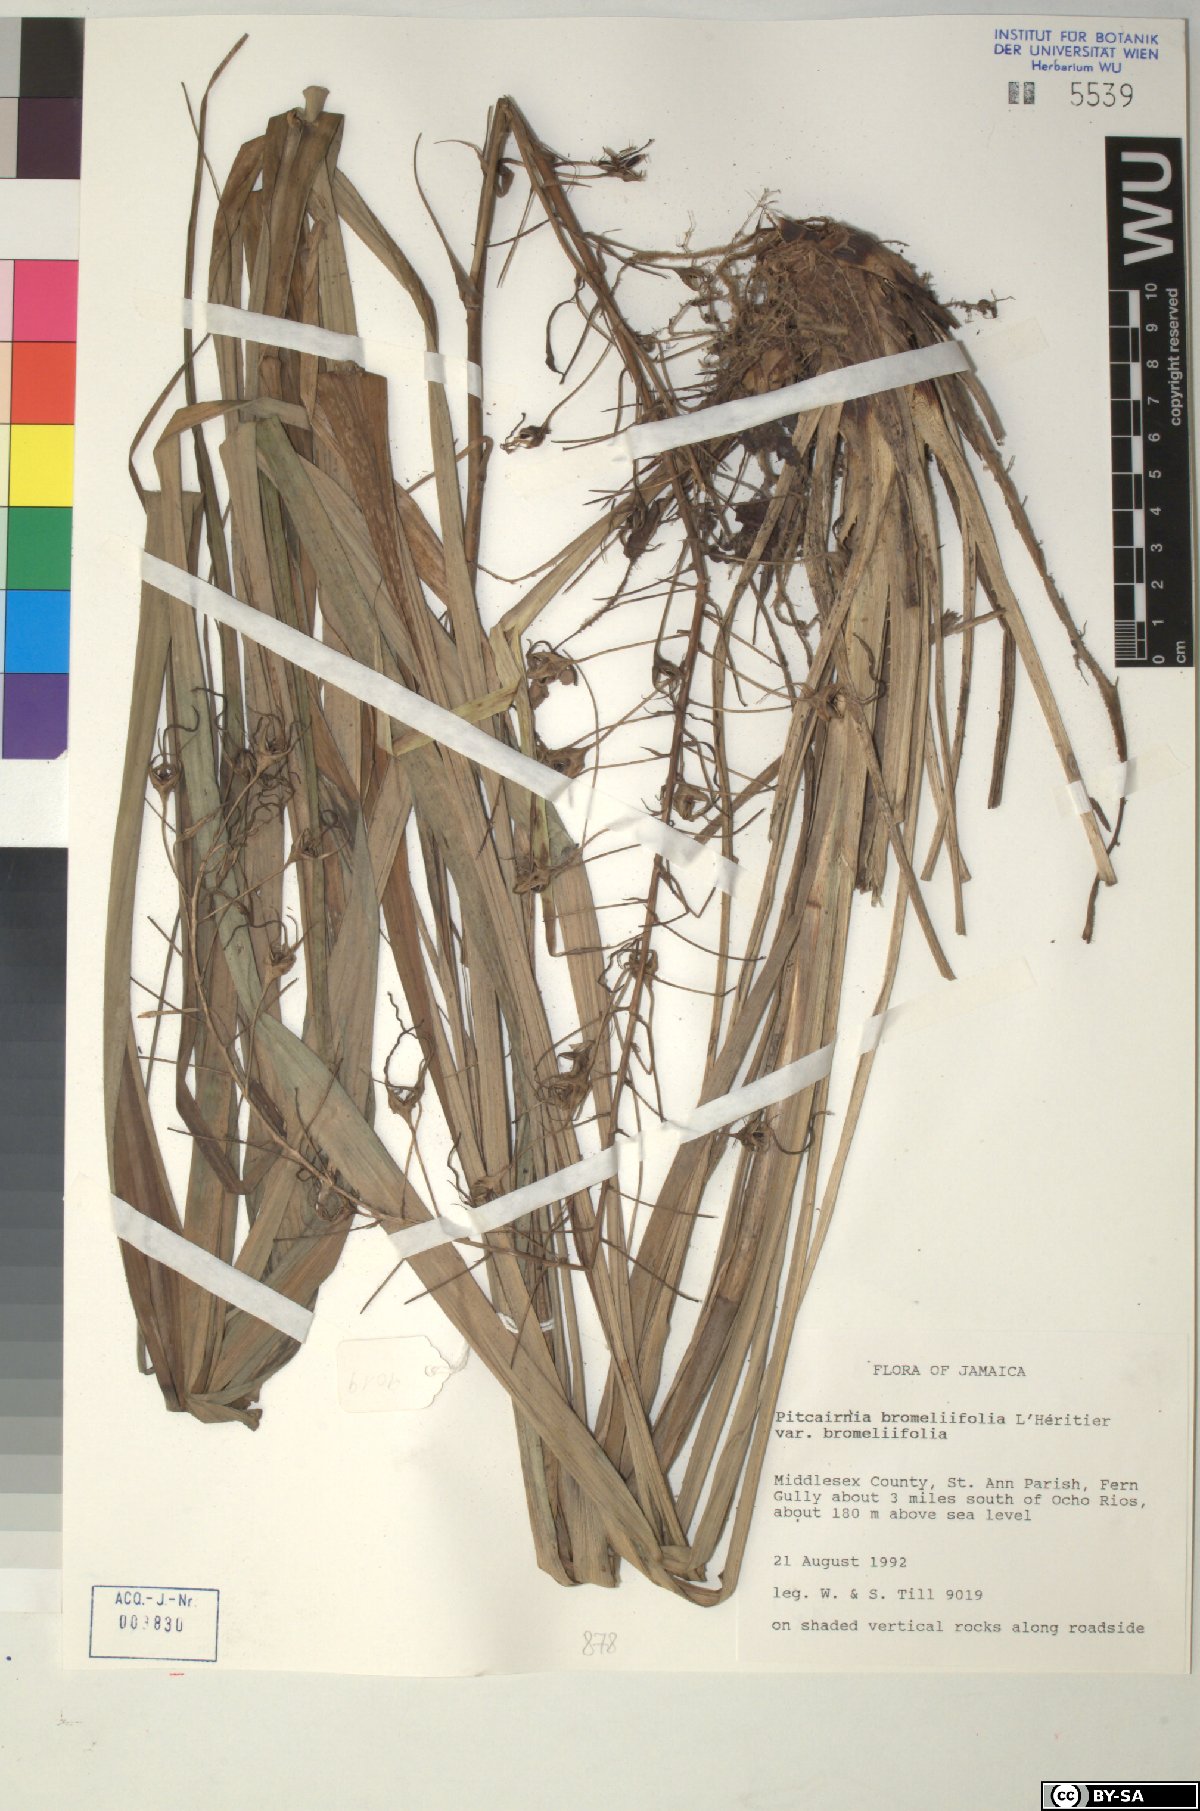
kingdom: Plantae
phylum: Tracheophyta
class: Liliopsida
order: Poales
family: Bromeliaceae
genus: Pitcairnia
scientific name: Pitcairnia bromeliifolia
